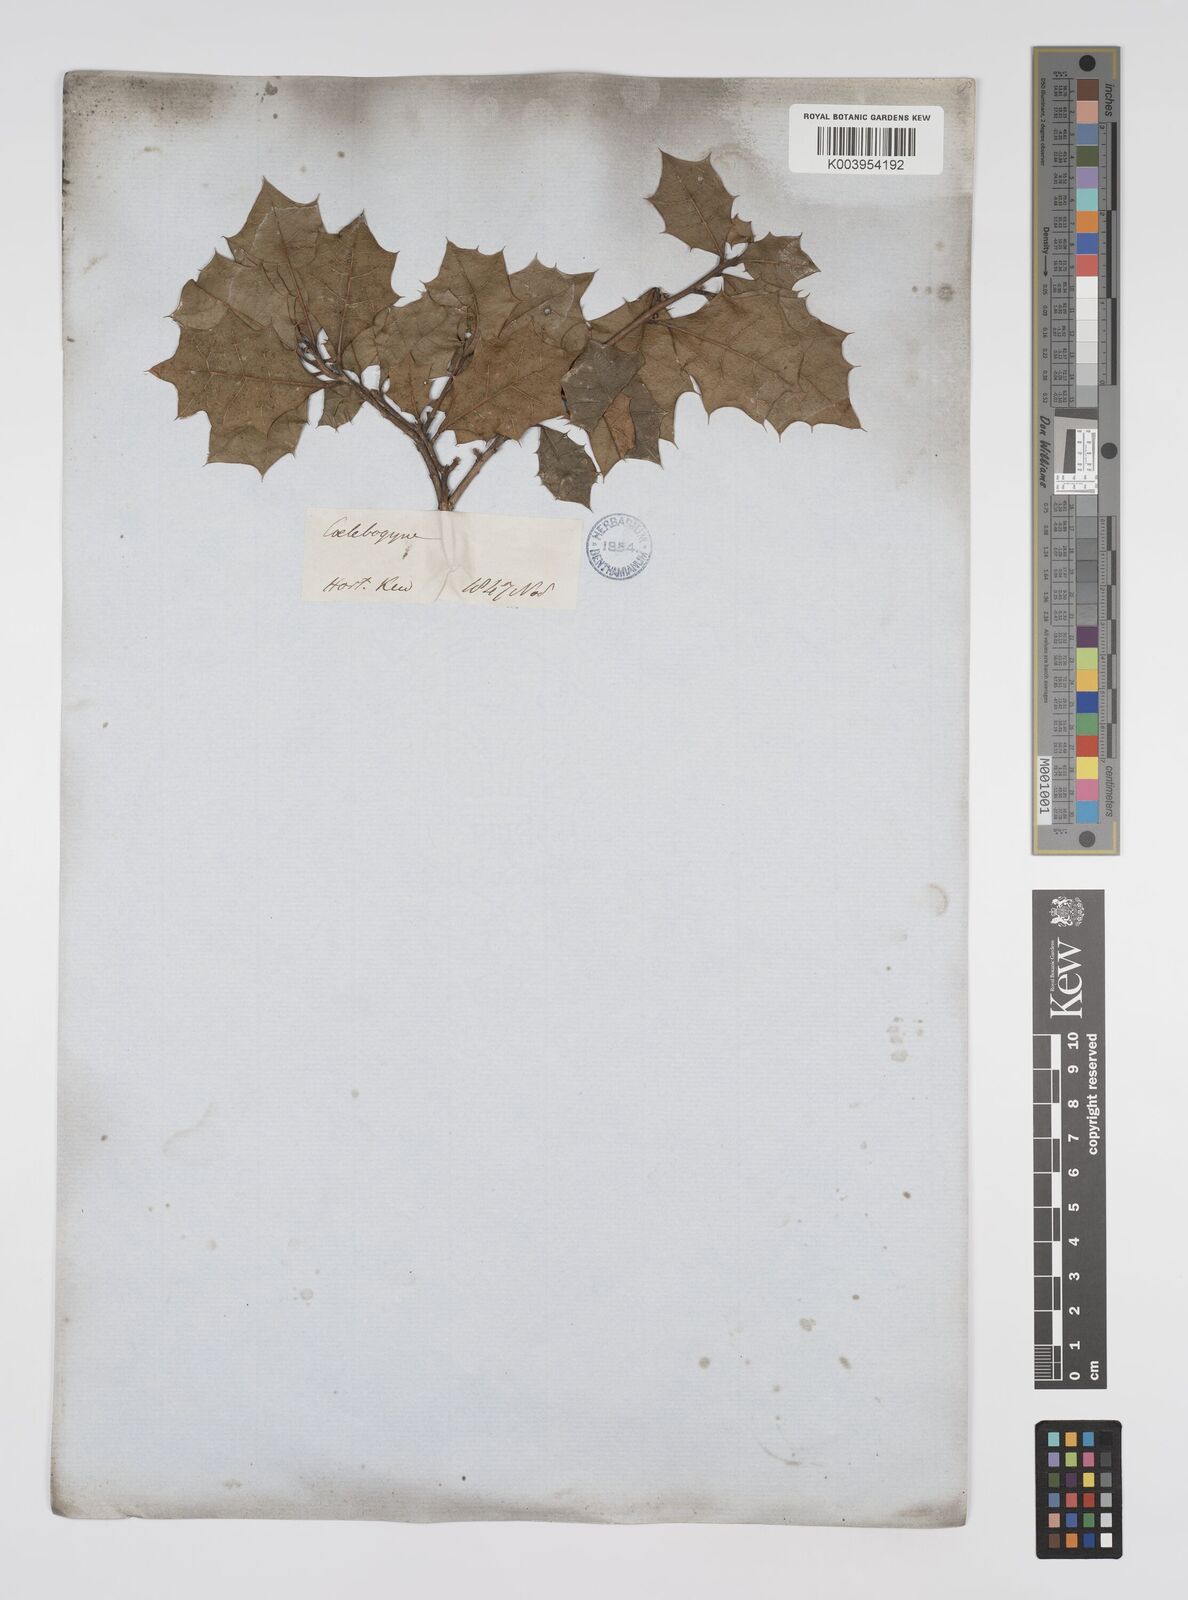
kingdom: Plantae
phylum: Tracheophyta
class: Magnoliopsida
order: Malpighiales
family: Euphorbiaceae
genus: Alchornea
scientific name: Alchornea ilicifolia
